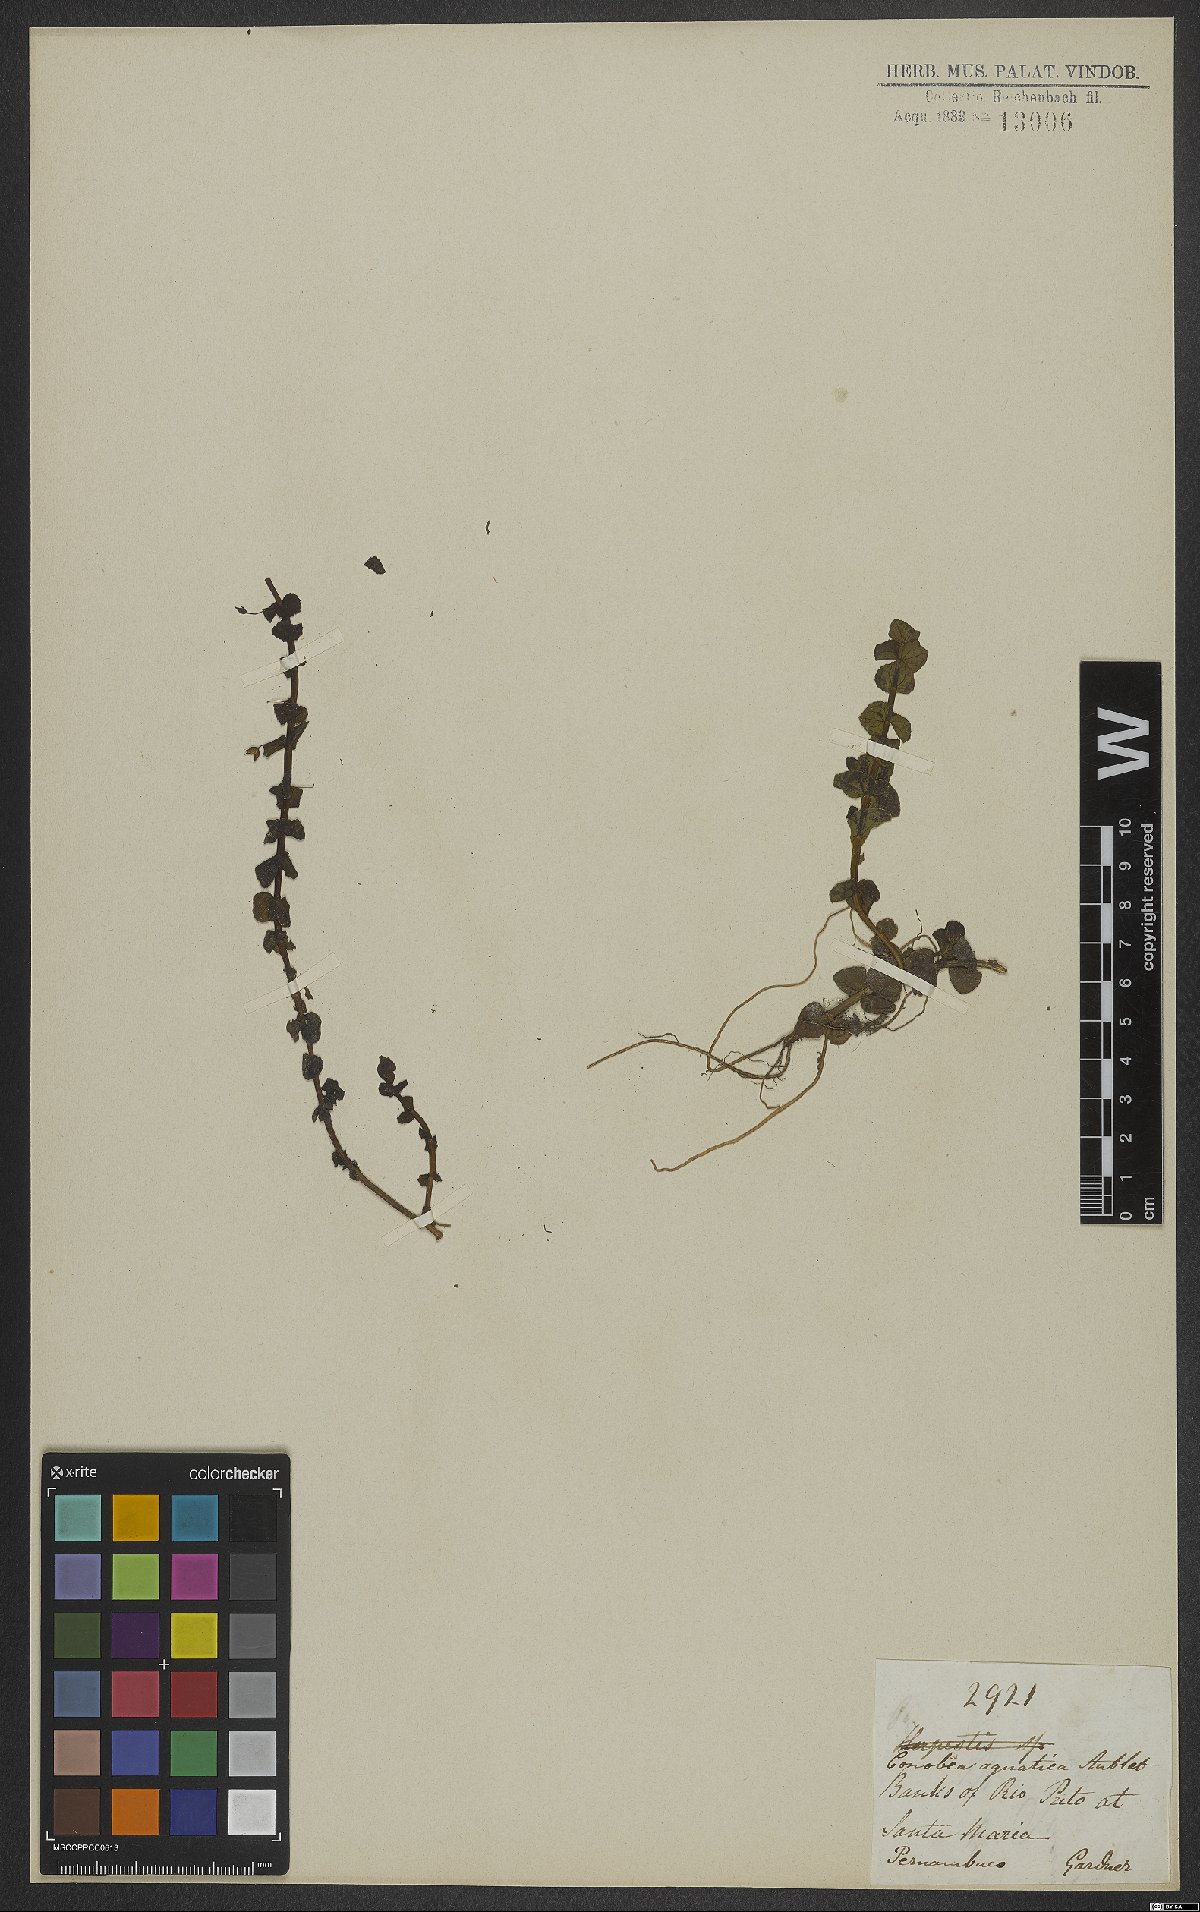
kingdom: Plantae
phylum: Tracheophyta
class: Magnoliopsida
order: Lamiales
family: Plantaginaceae
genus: Conobea
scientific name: Conobea aquatica
